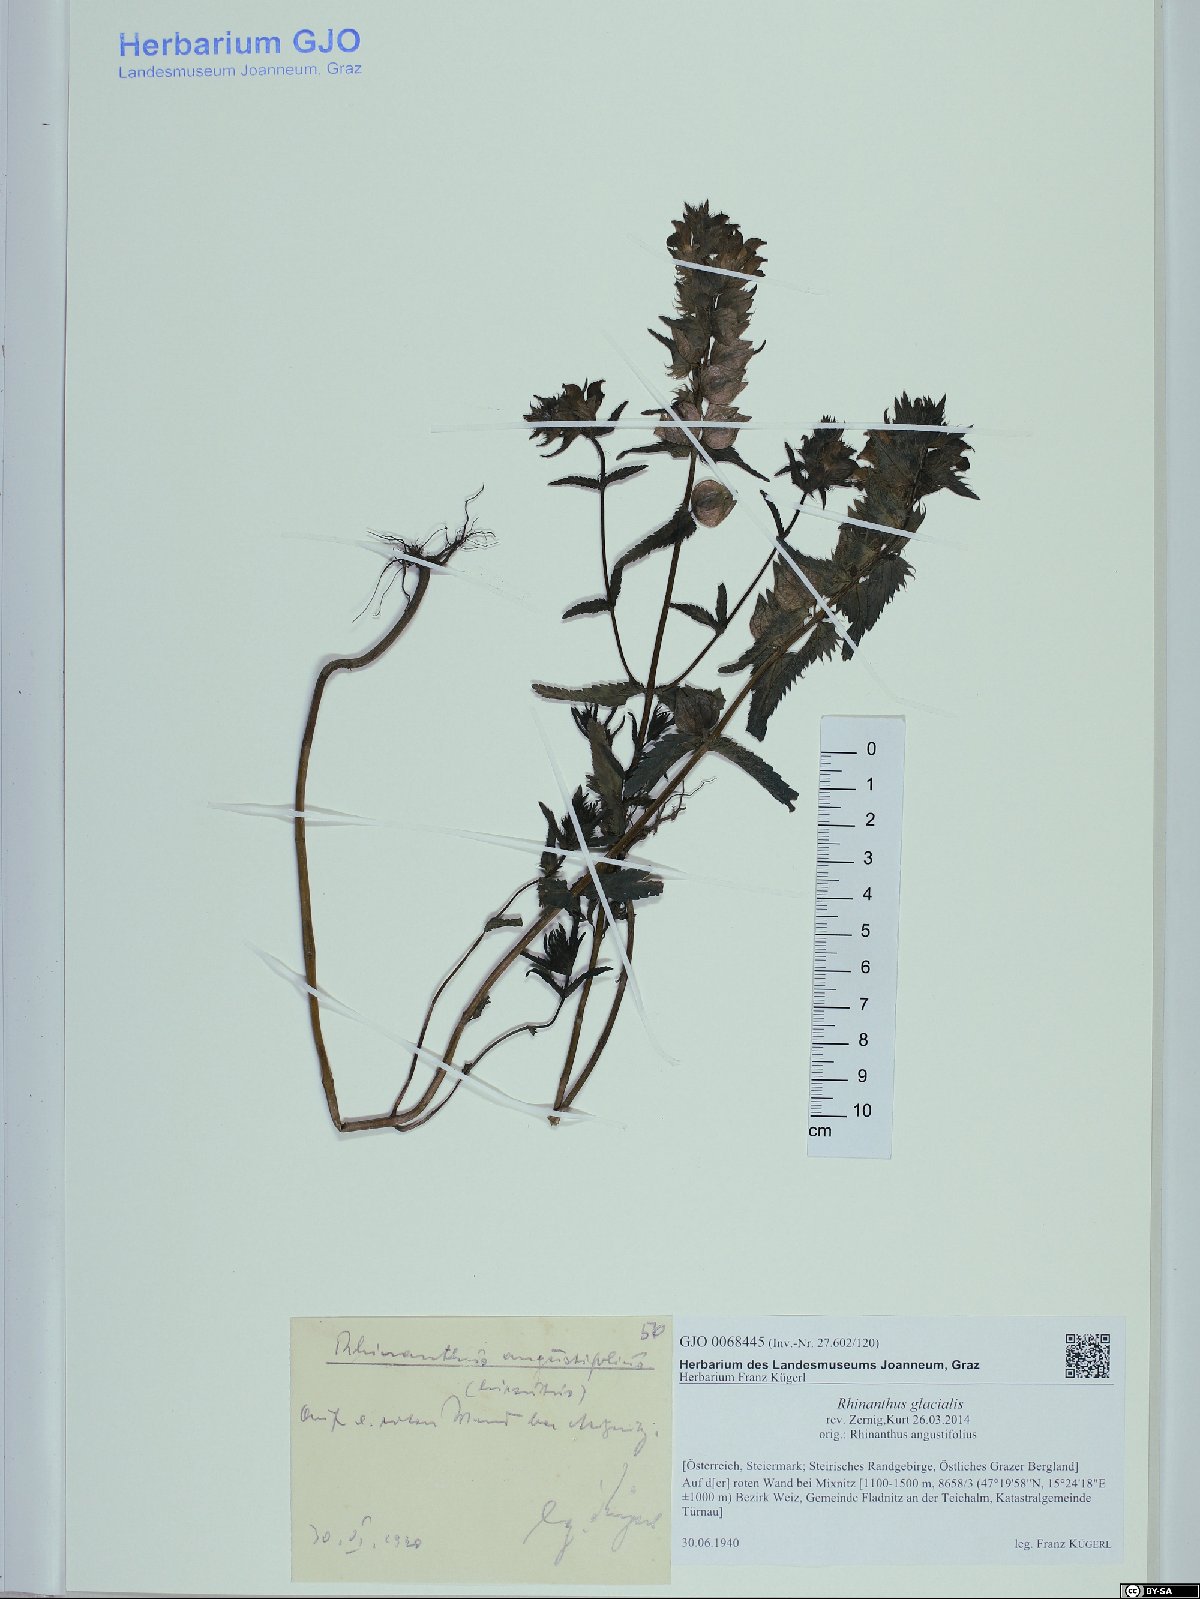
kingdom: Plantae
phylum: Tracheophyta
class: Magnoliopsida
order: Lamiales
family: Orobanchaceae
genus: Rhinanthus
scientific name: Rhinanthus glacialis
